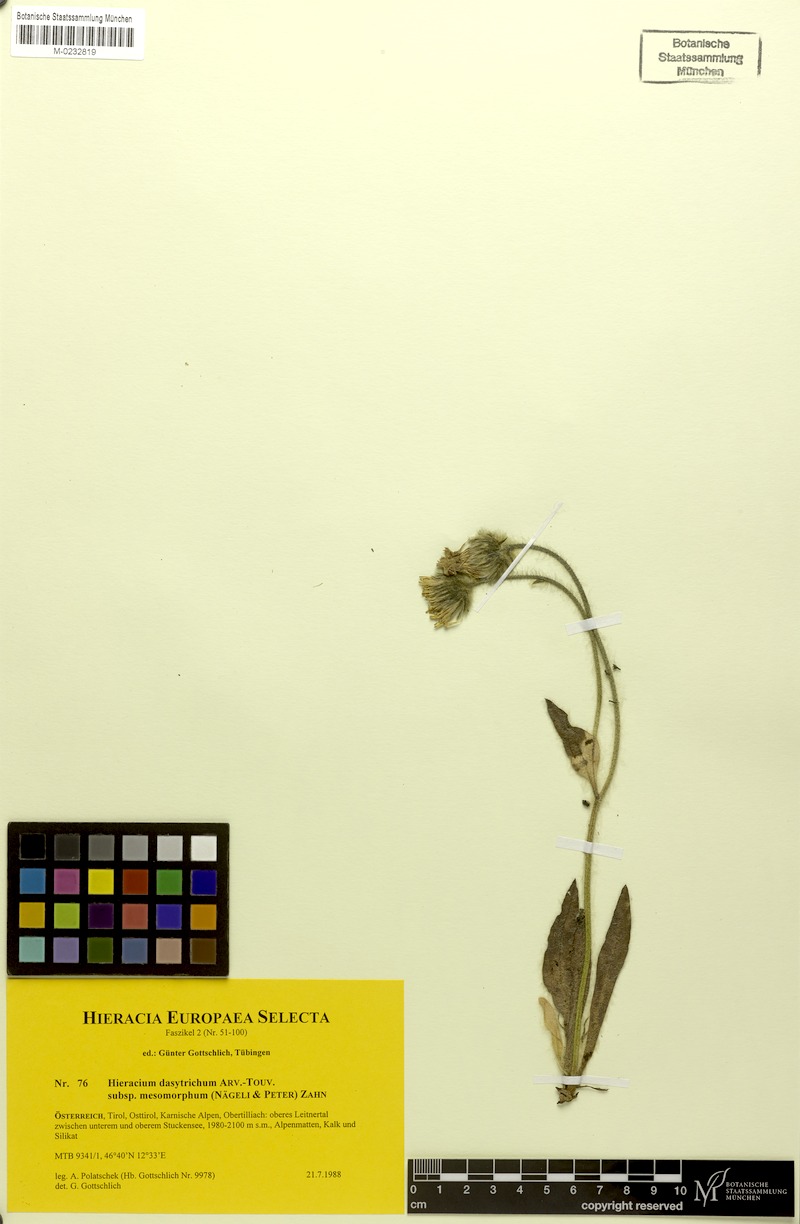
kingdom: Plantae
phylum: Tracheophyta
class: Magnoliopsida
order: Asterales
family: Asteraceae
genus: Hieracium
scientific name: Hieracium dasytrichum
